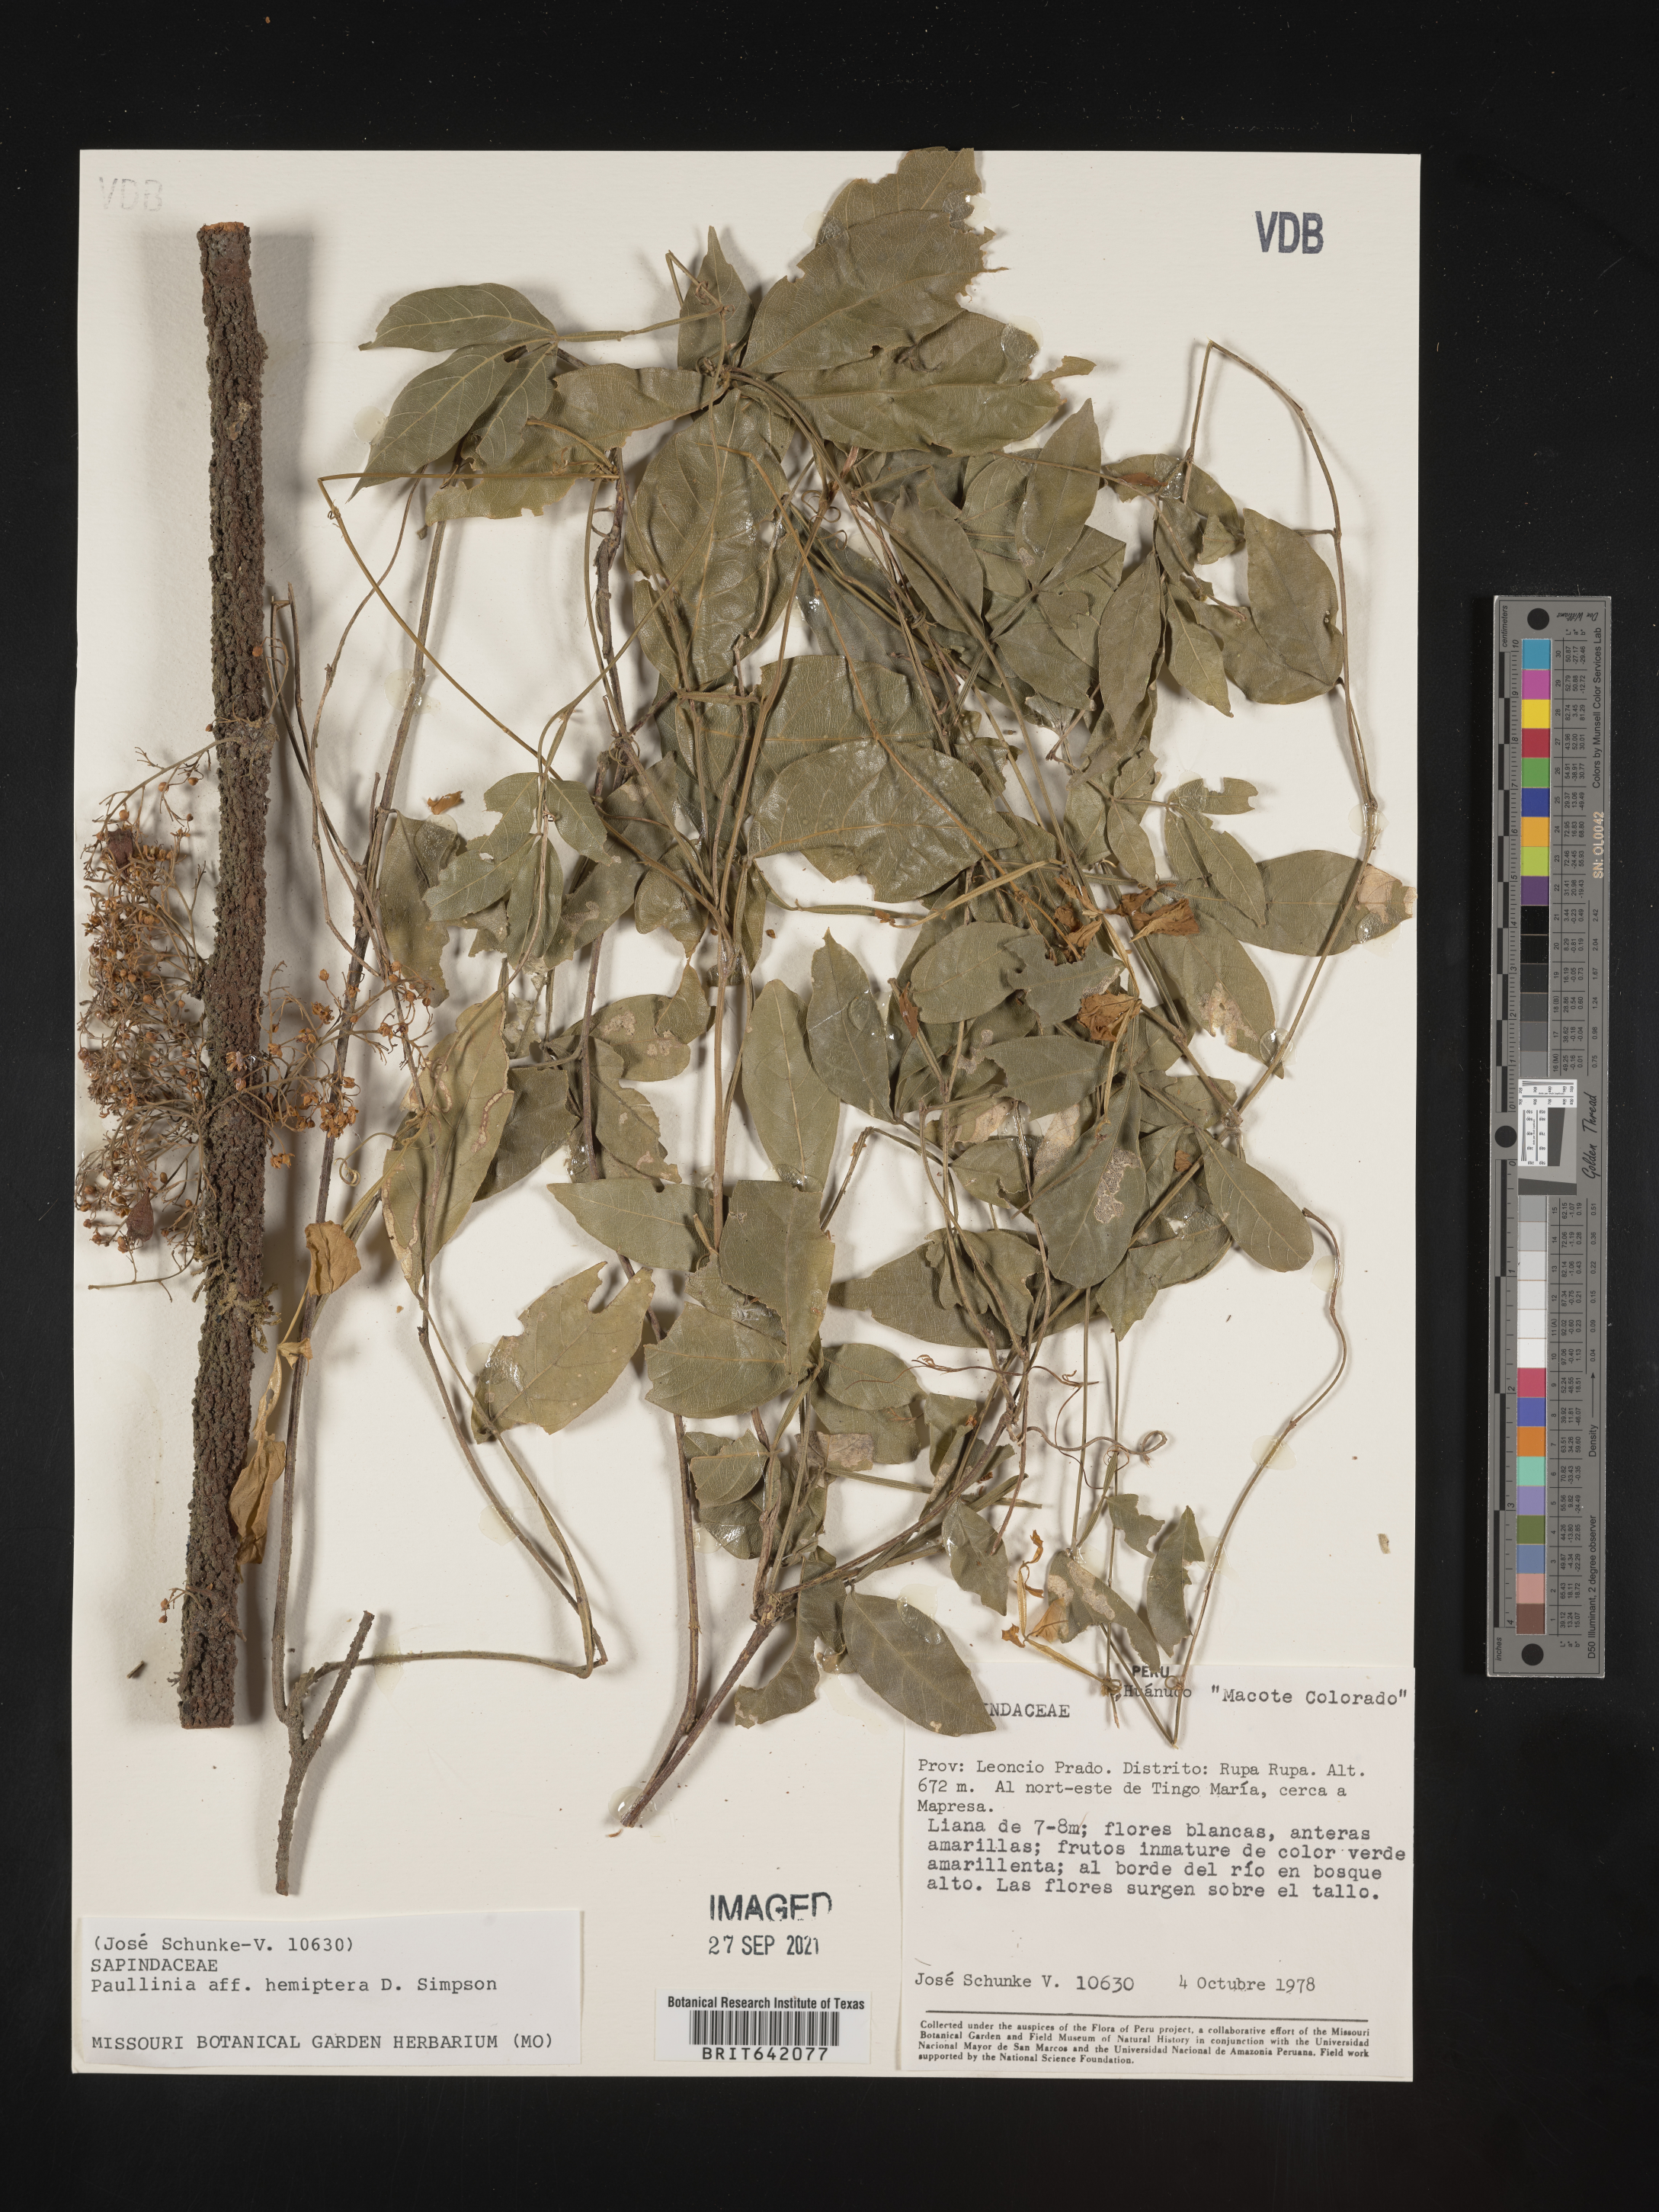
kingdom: Plantae
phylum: Tracheophyta
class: Magnoliopsida
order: Sapindales
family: Sapindaceae
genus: Paullinia
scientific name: Paullinia
